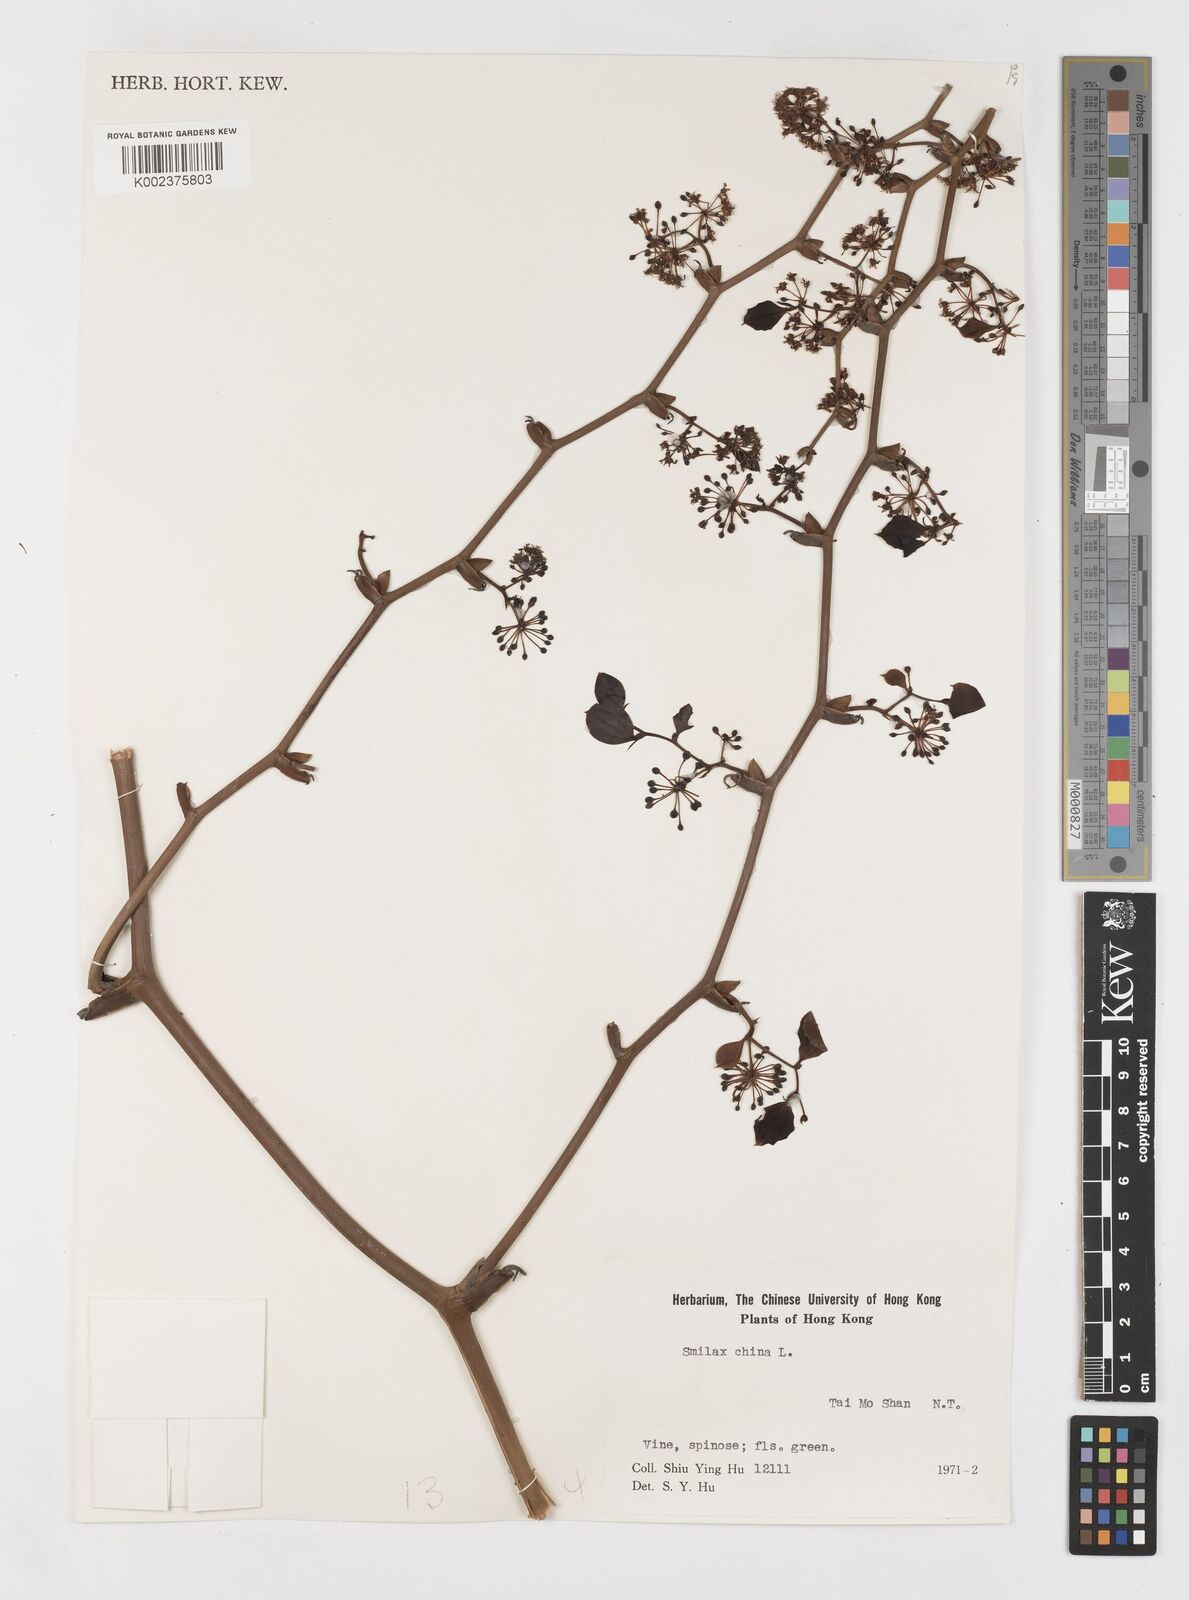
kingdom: Plantae
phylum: Tracheophyta
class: Liliopsida
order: Liliales
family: Smilacaceae
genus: Smilax
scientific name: Smilax china
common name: Chinaroot
